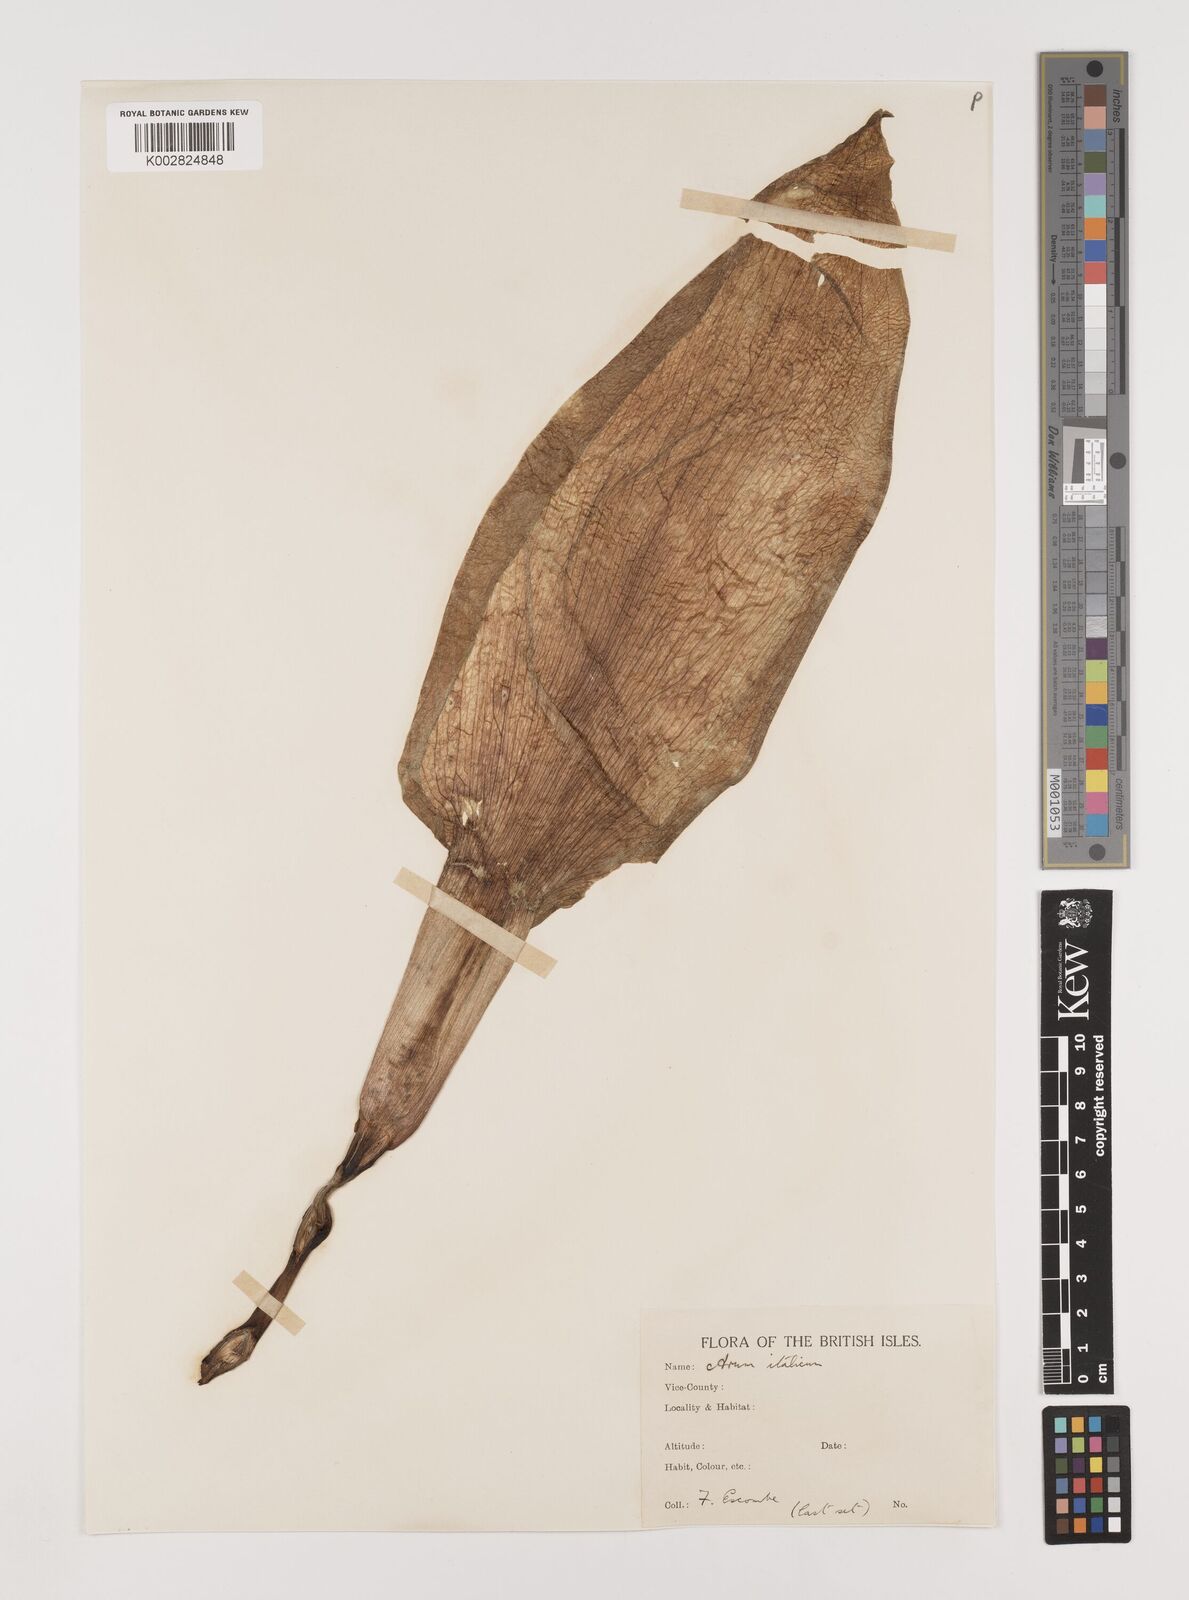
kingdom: Plantae
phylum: Tracheophyta
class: Liliopsida
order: Alismatales
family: Araceae
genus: Arum
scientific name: Arum italicum
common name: Italian lords-and-ladies
